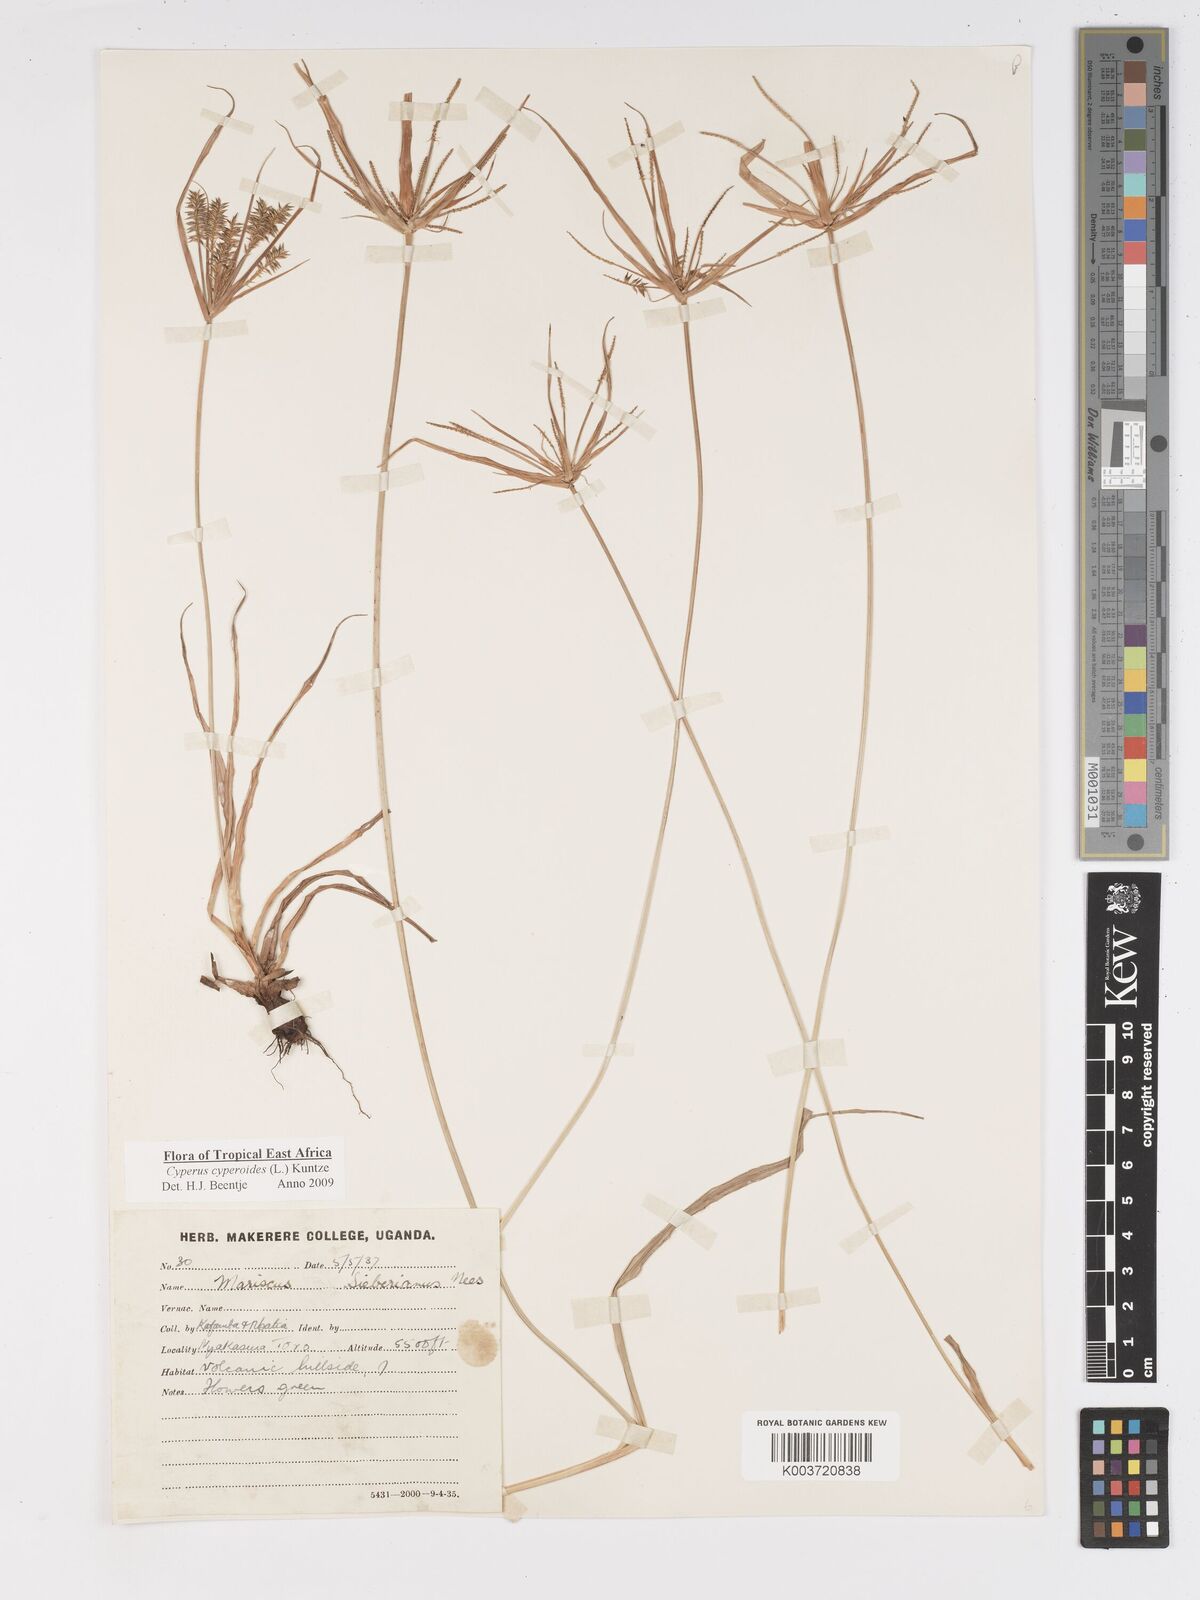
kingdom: Plantae
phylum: Tracheophyta
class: Liliopsida
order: Poales
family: Cyperaceae
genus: Cyperus
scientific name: Cyperus cyperoides
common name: Pacific island flat sedge
